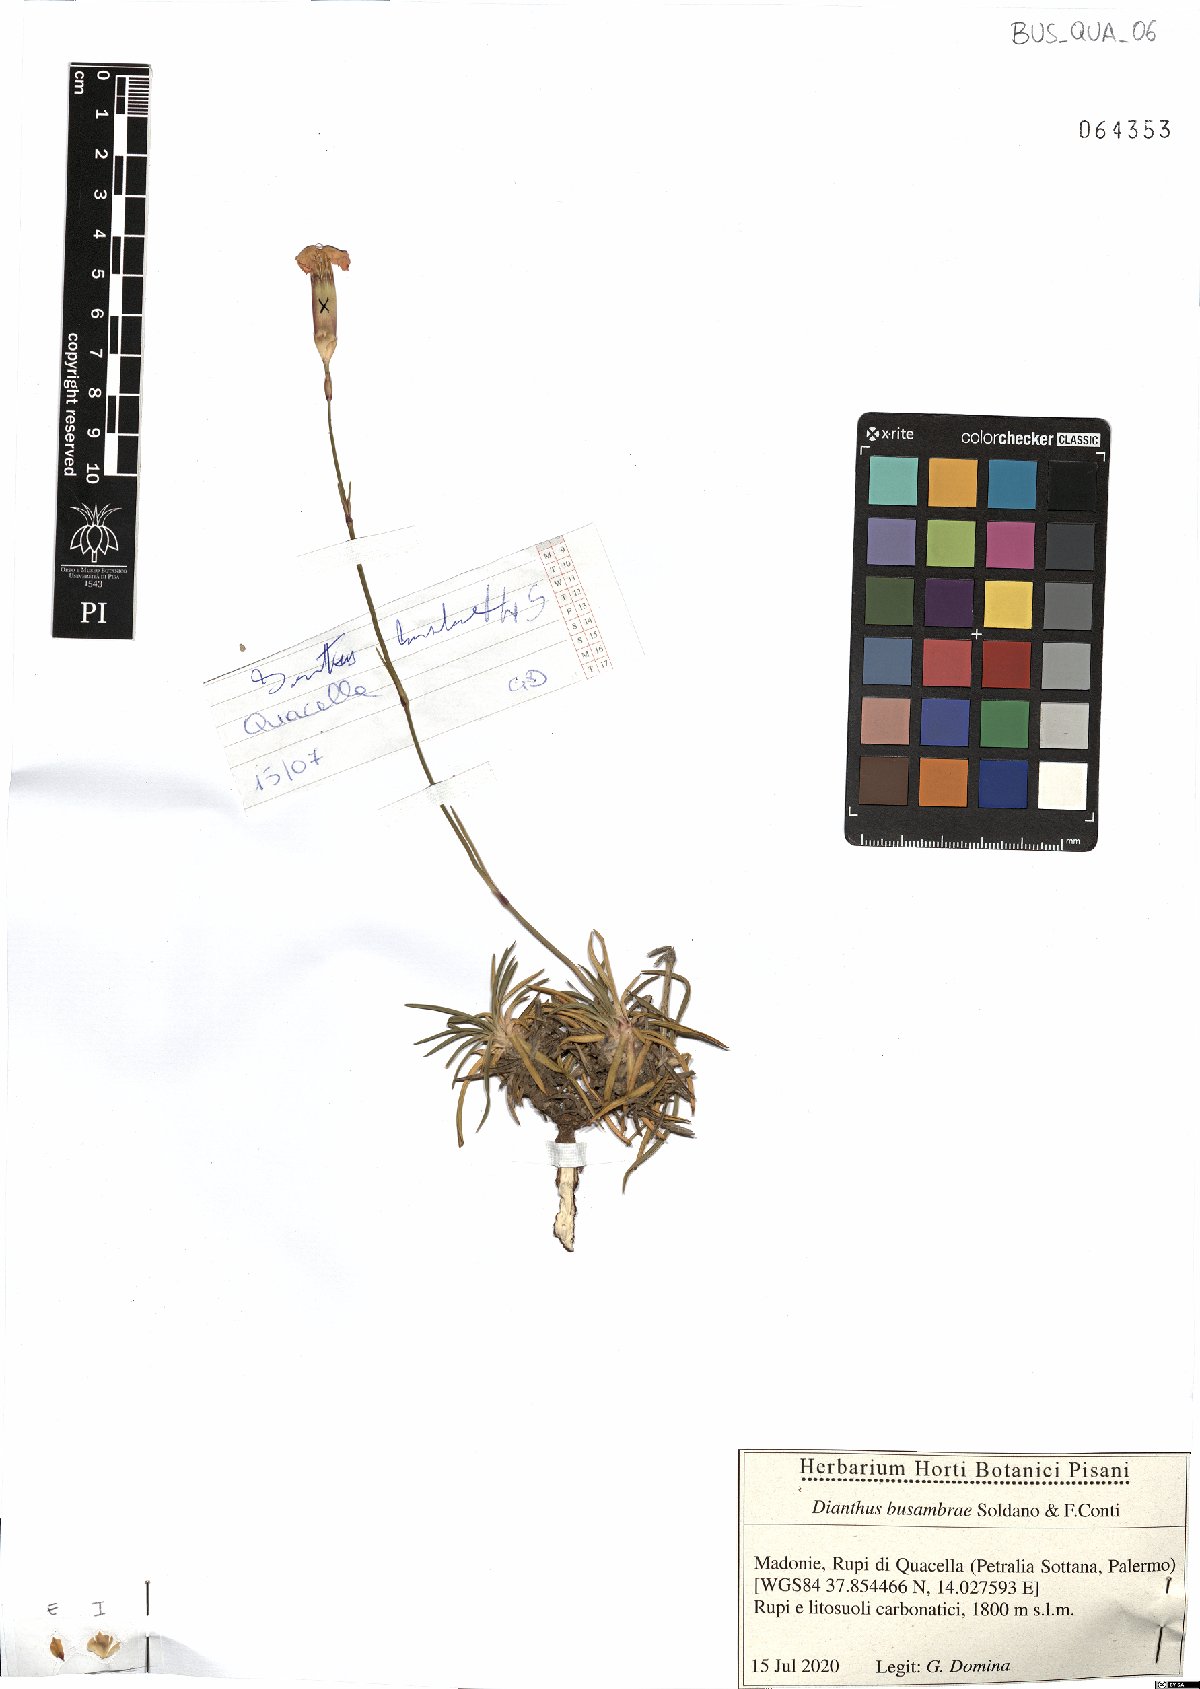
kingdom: Plantae
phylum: Tracheophyta
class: Magnoliopsida
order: Caryophyllales
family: Caryophyllaceae
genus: Dianthus
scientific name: Dianthus busambrae
